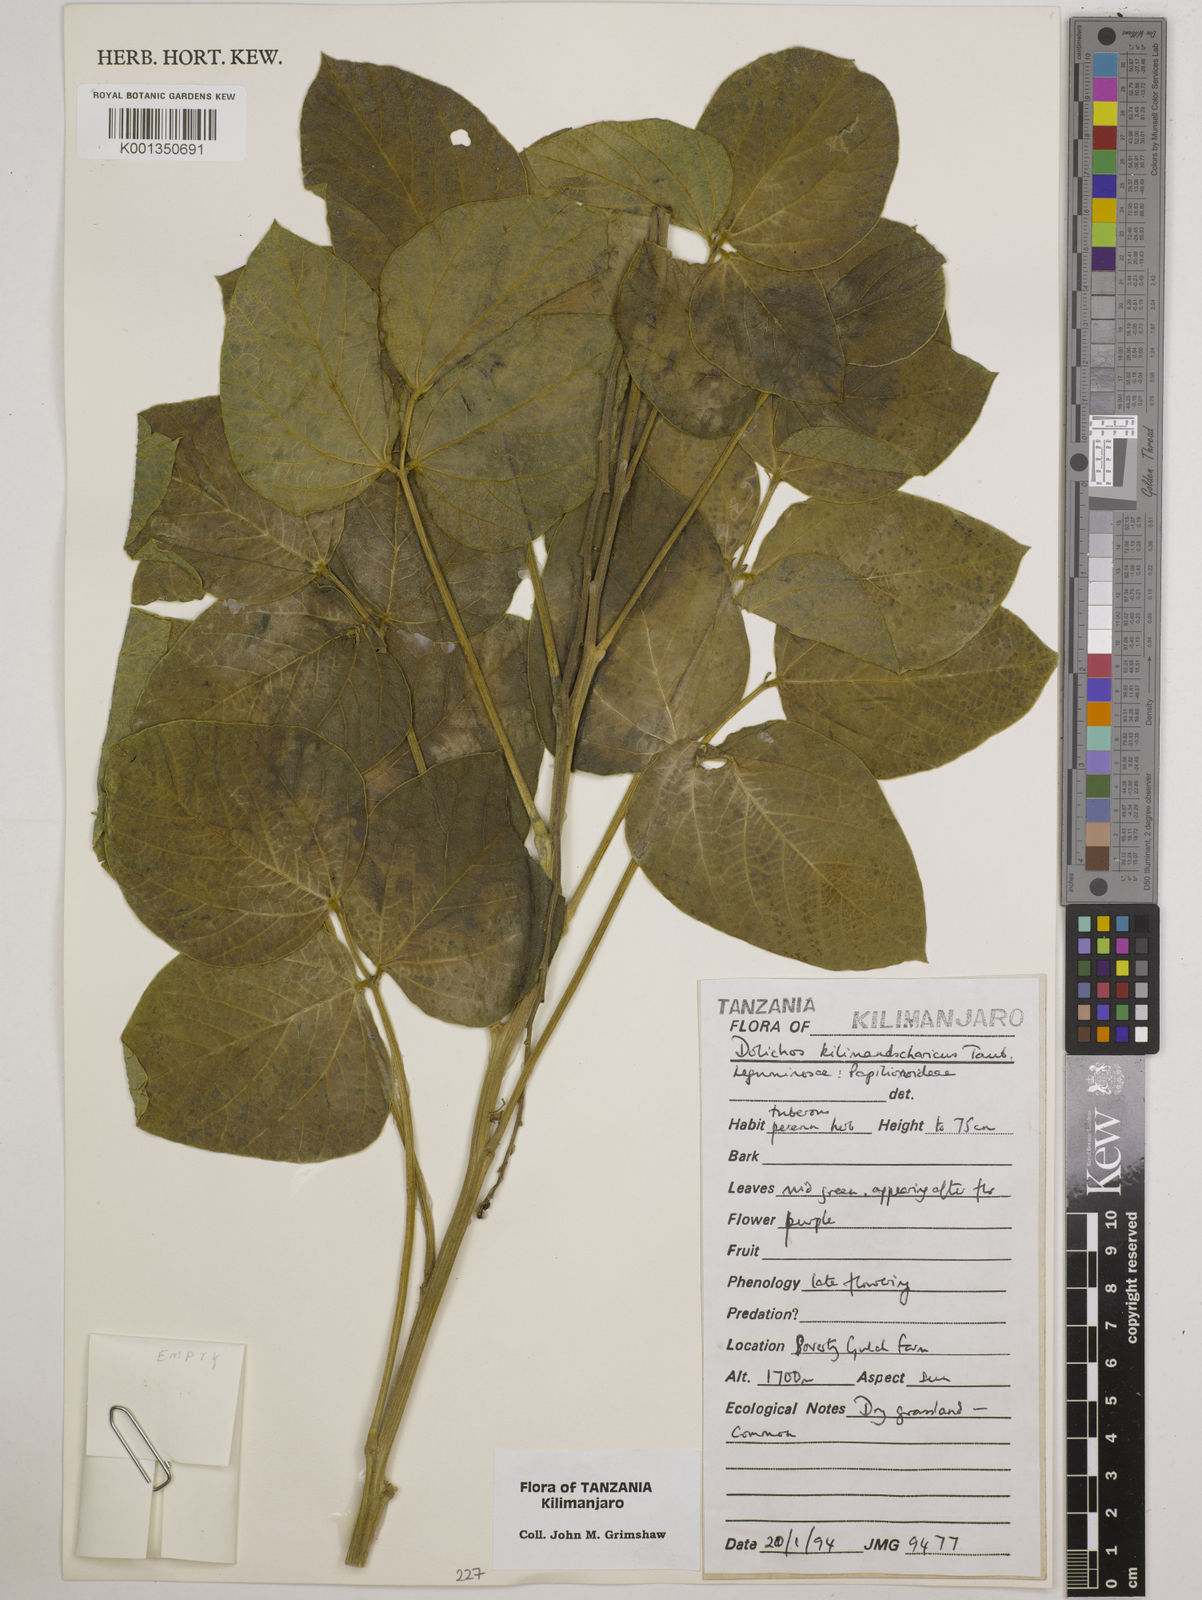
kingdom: Plantae
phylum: Tracheophyta
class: Magnoliopsida
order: Fabales
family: Fabaceae
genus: Dolichos
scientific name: Dolichos kilimandscharicus
